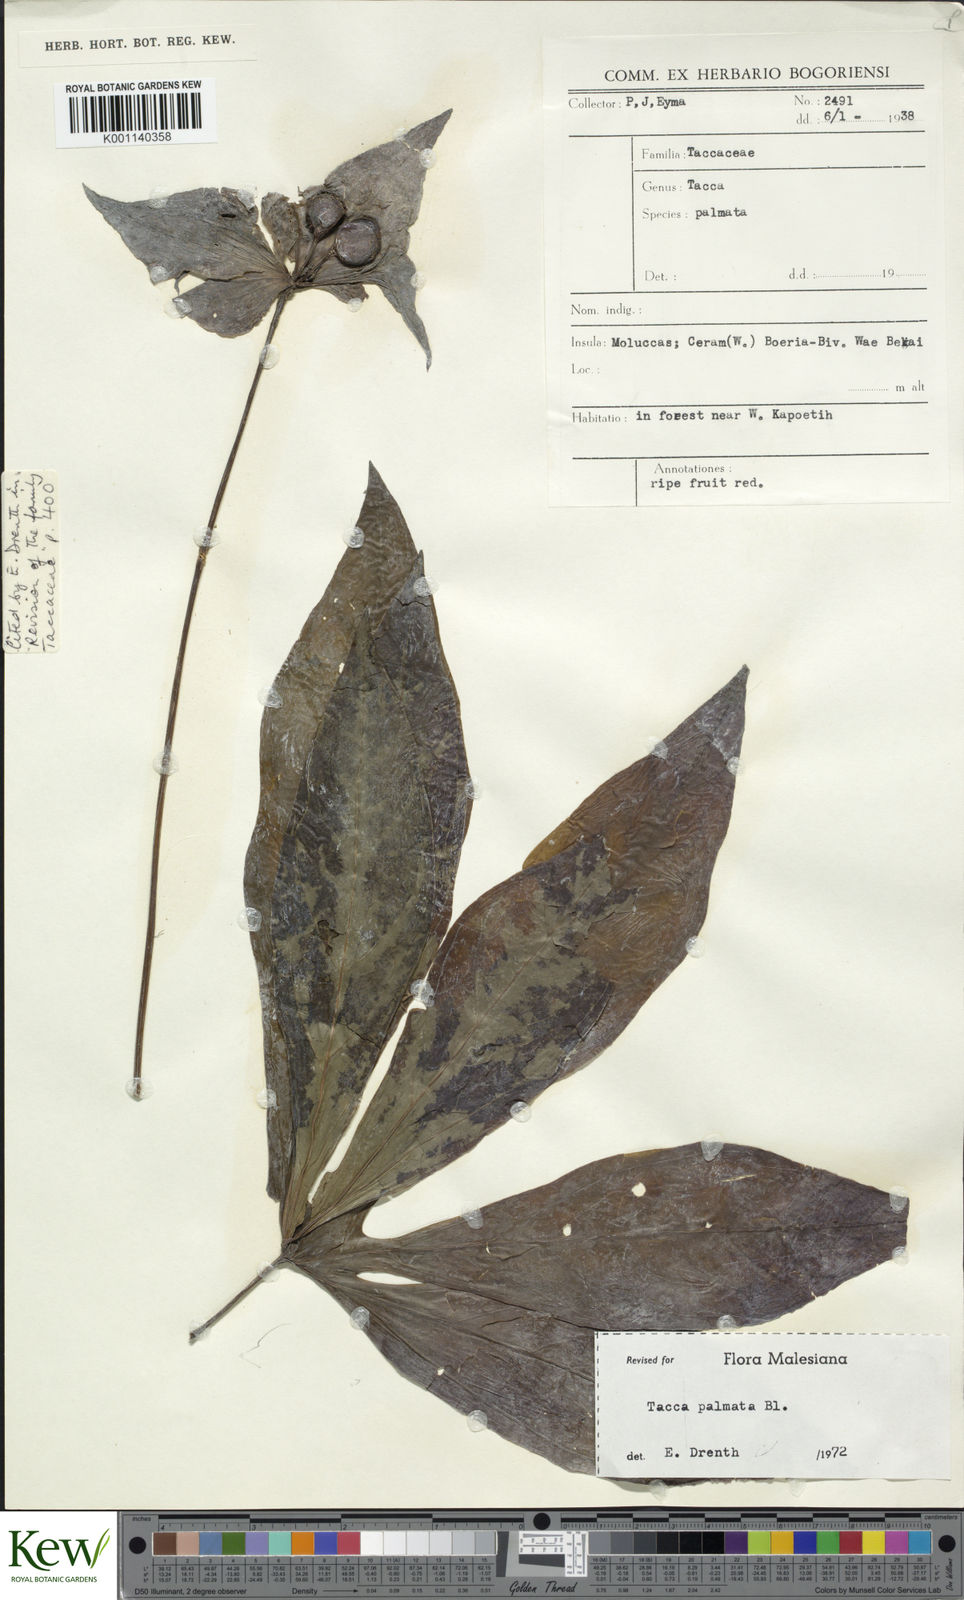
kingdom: Plantae
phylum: Tracheophyta
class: Liliopsida
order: Dioscoreales
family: Dioscoreaceae
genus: Tacca
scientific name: Tacca palmata
